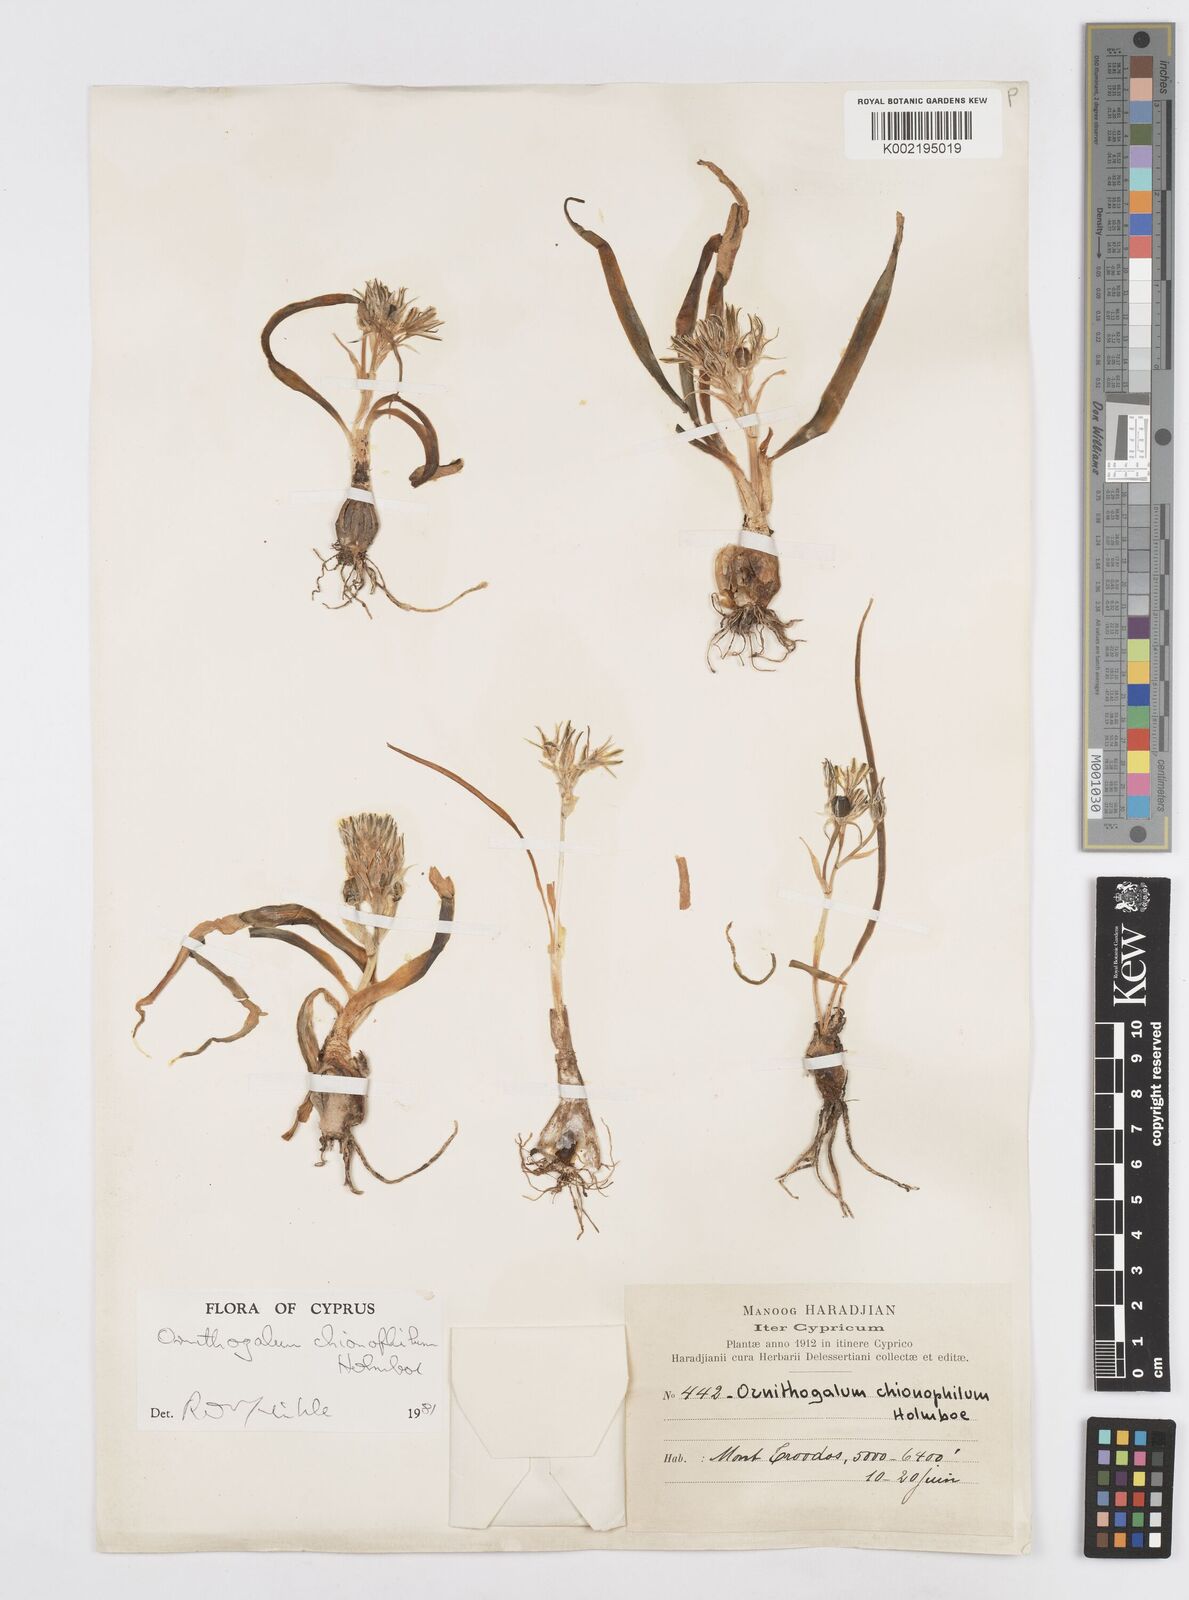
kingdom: Plantae
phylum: Tracheophyta
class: Liliopsida
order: Asparagales
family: Asparagaceae
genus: Ornithogalum
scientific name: Ornithogalum chionophilum
